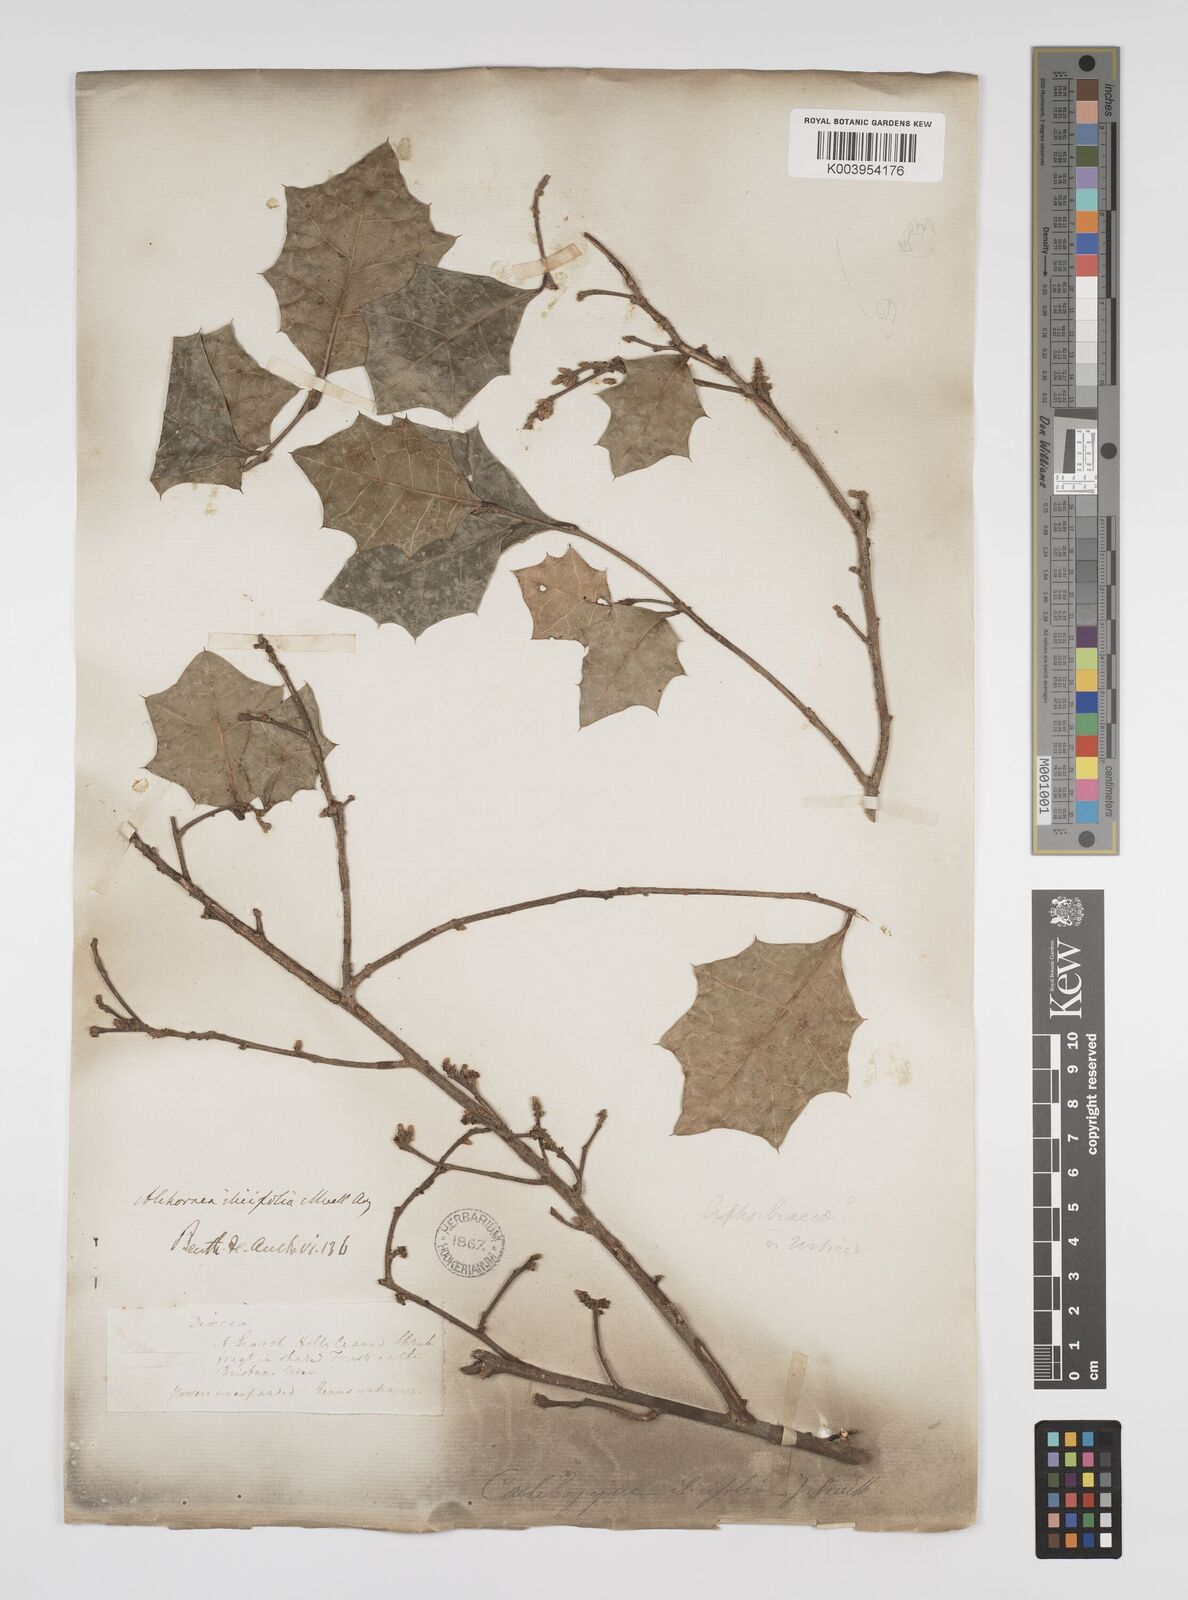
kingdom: Plantae
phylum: Tracheophyta
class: Magnoliopsida
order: Malpighiales
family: Euphorbiaceae
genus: Alchornea
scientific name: Alchornea ilicifolia
